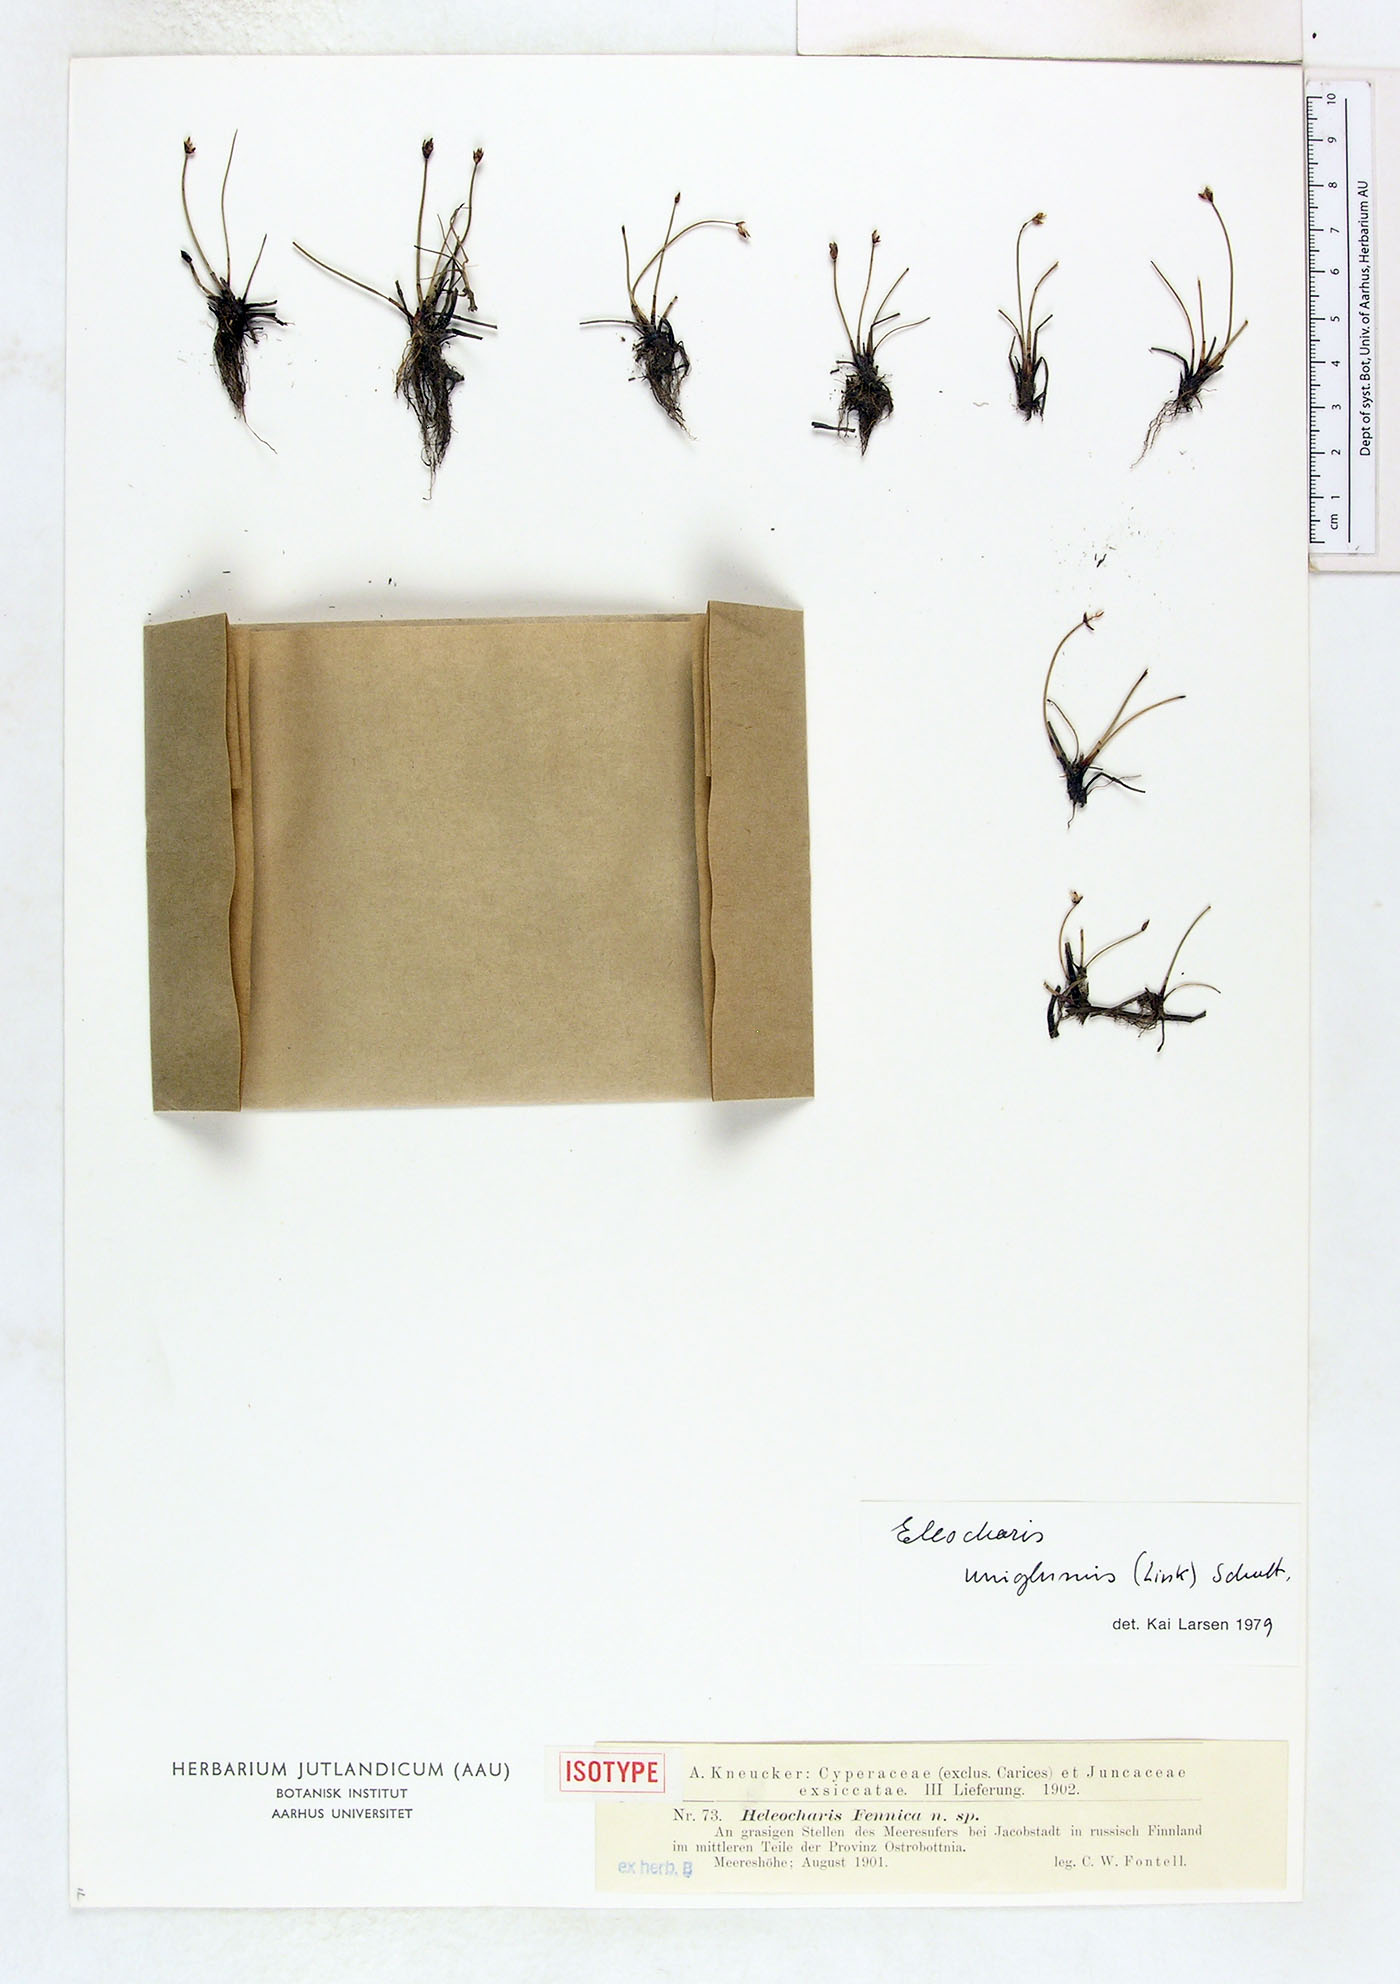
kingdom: Plantae
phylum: Tracheophyta
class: Liliopsida
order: Poales
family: Cyperaceae
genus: Eleocharis
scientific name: Eleocharis fennica
